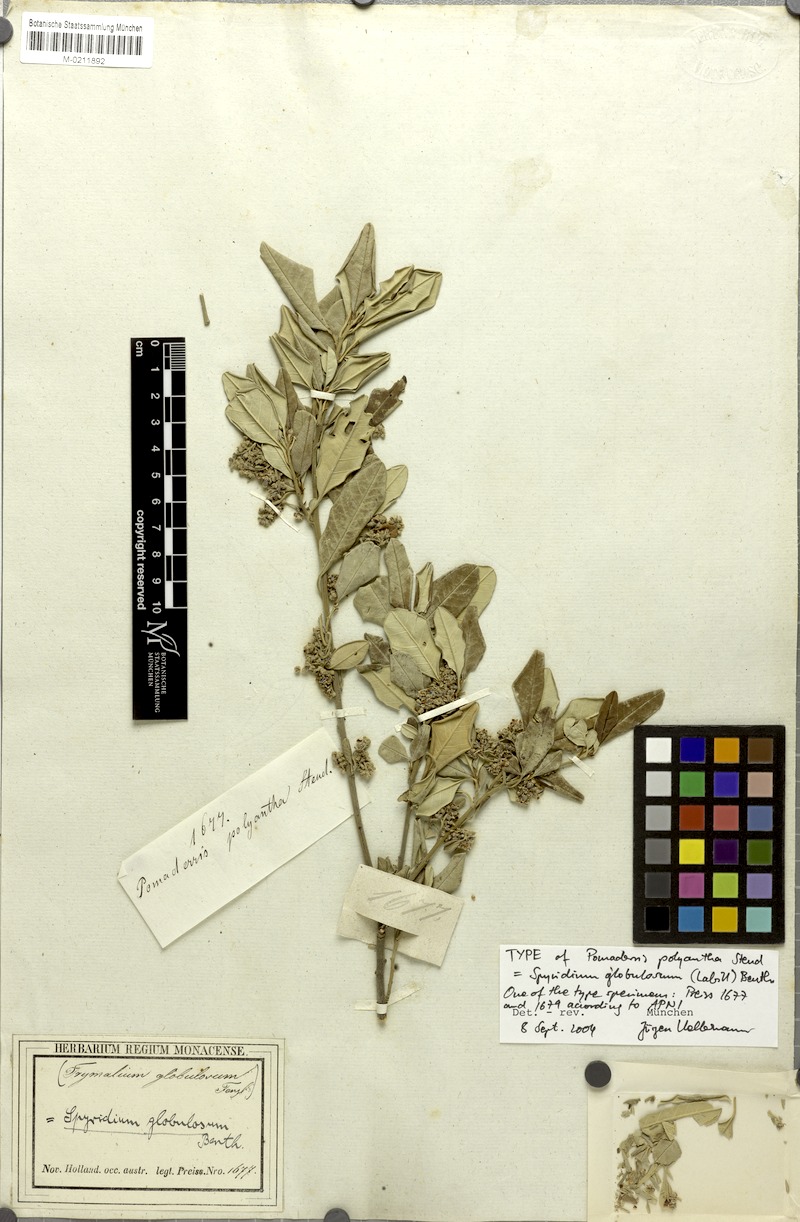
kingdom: Plantae
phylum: Tracheophyta
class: Magnoliopsida
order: Rosales
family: Rhamnaceae
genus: Spyridium
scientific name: Spyridium globulosum
